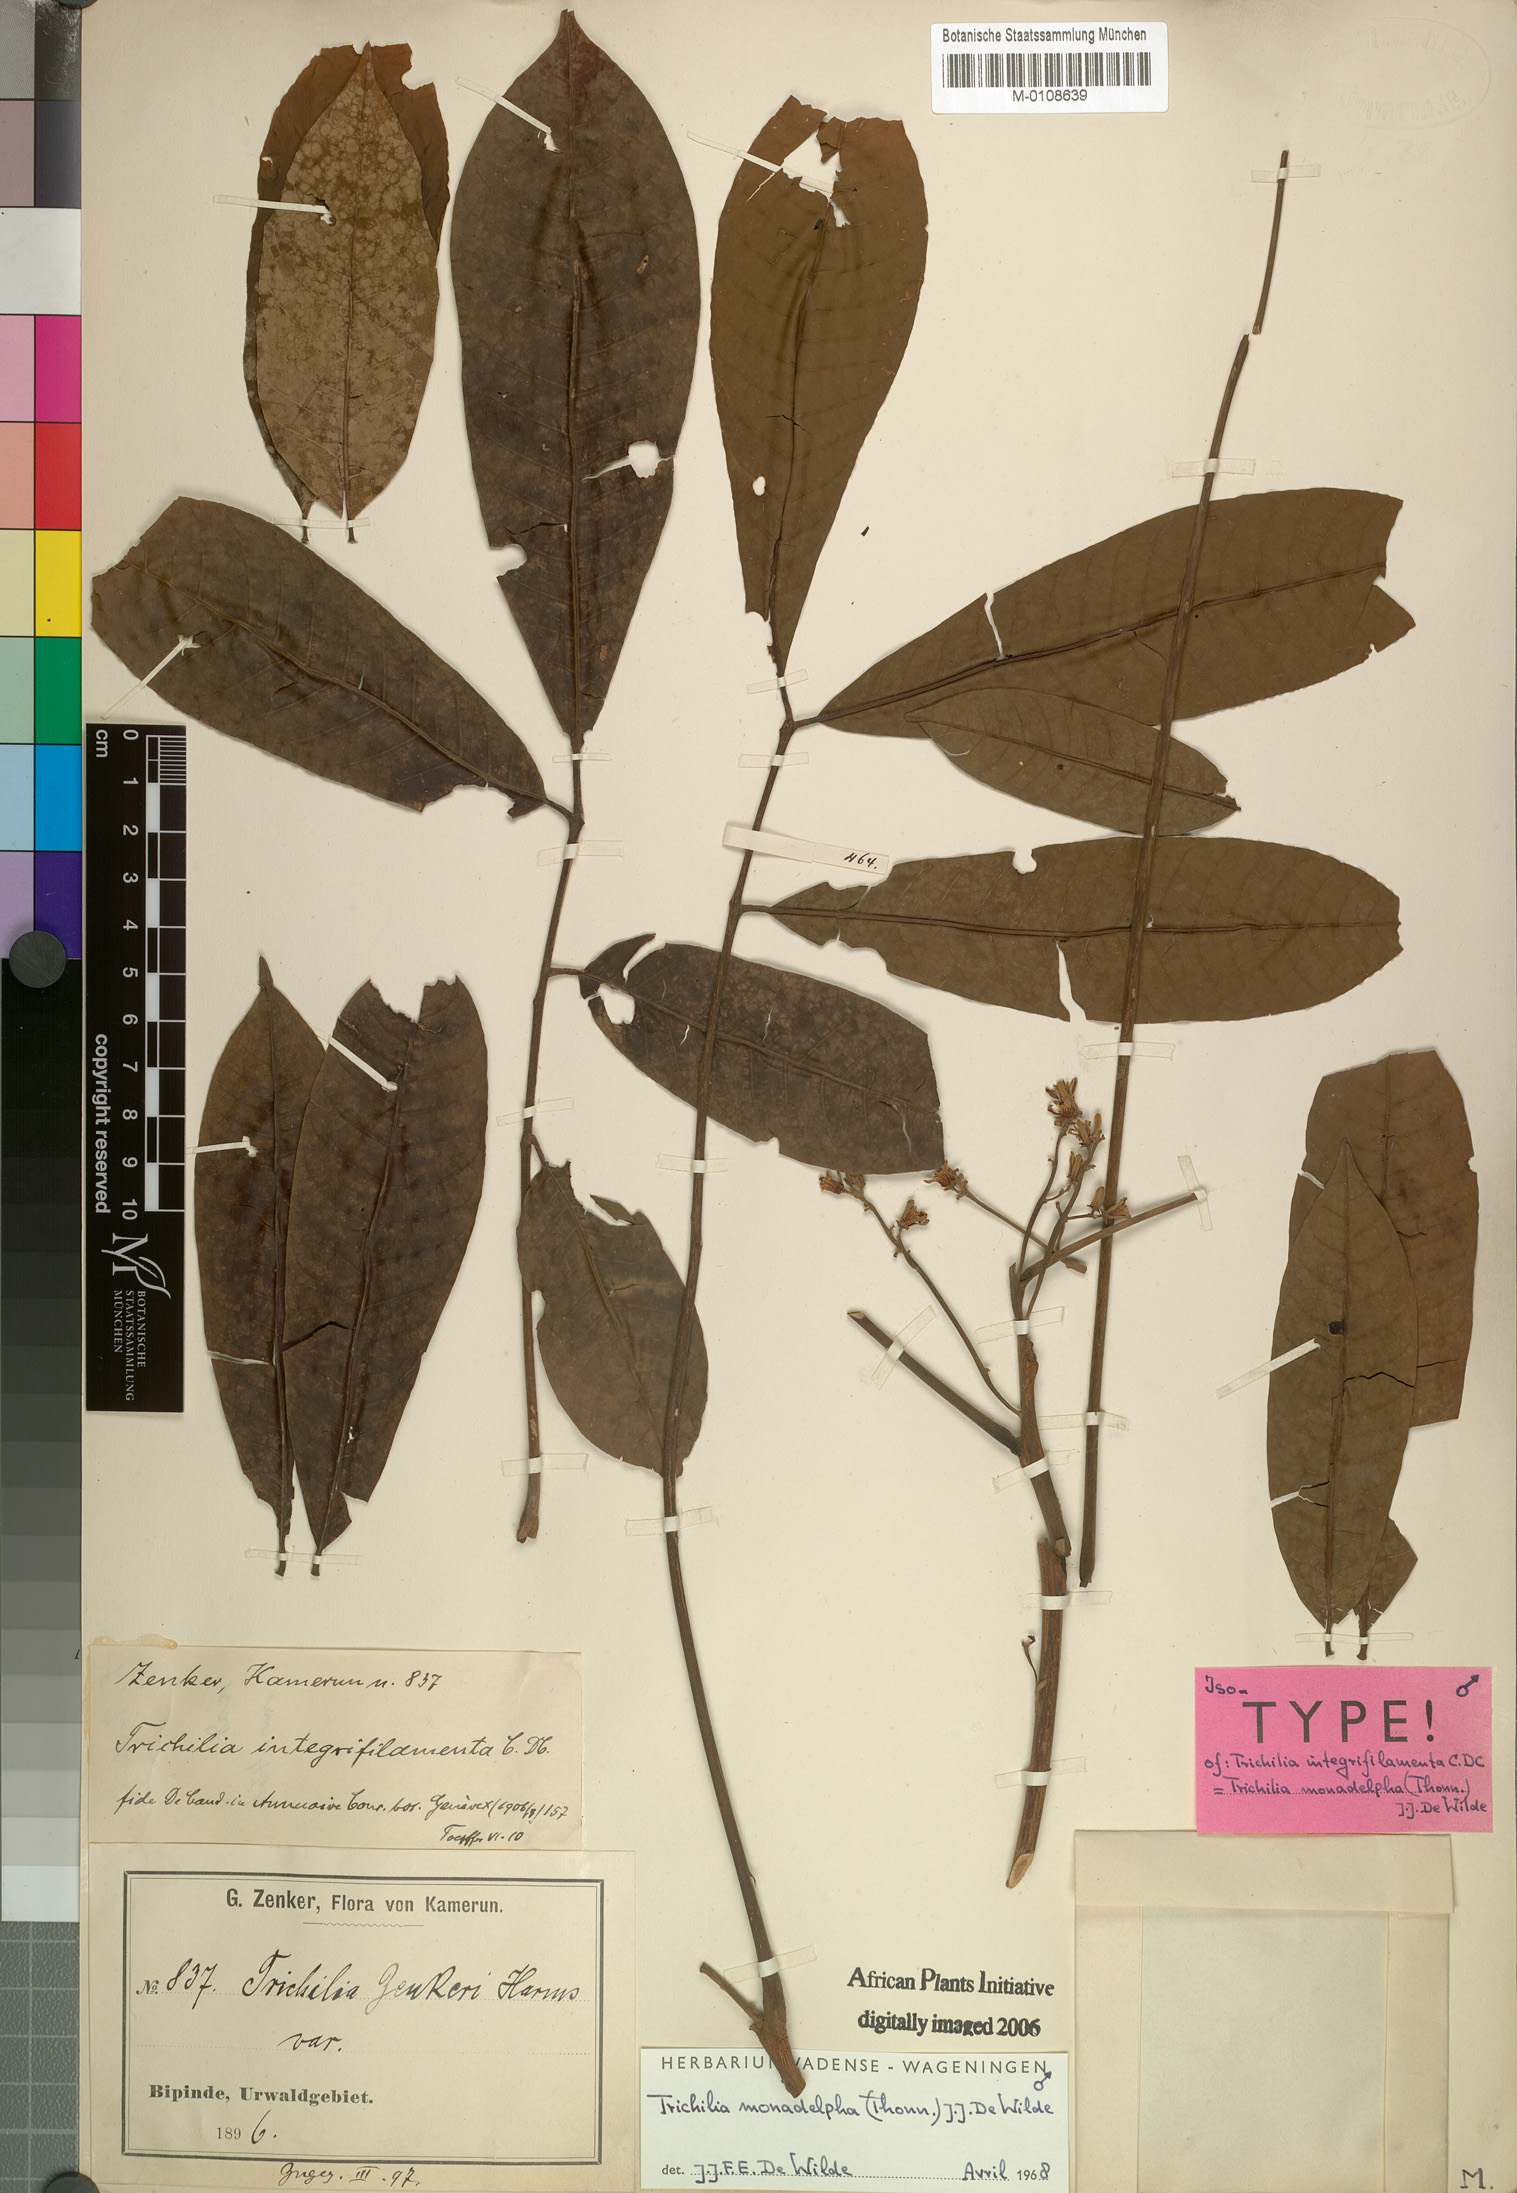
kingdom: Plantae
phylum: Tracheophyta
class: Magnoliopsida
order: Sapindales
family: Meliaceae
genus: Trichilia
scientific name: Trichilia monadelpha
